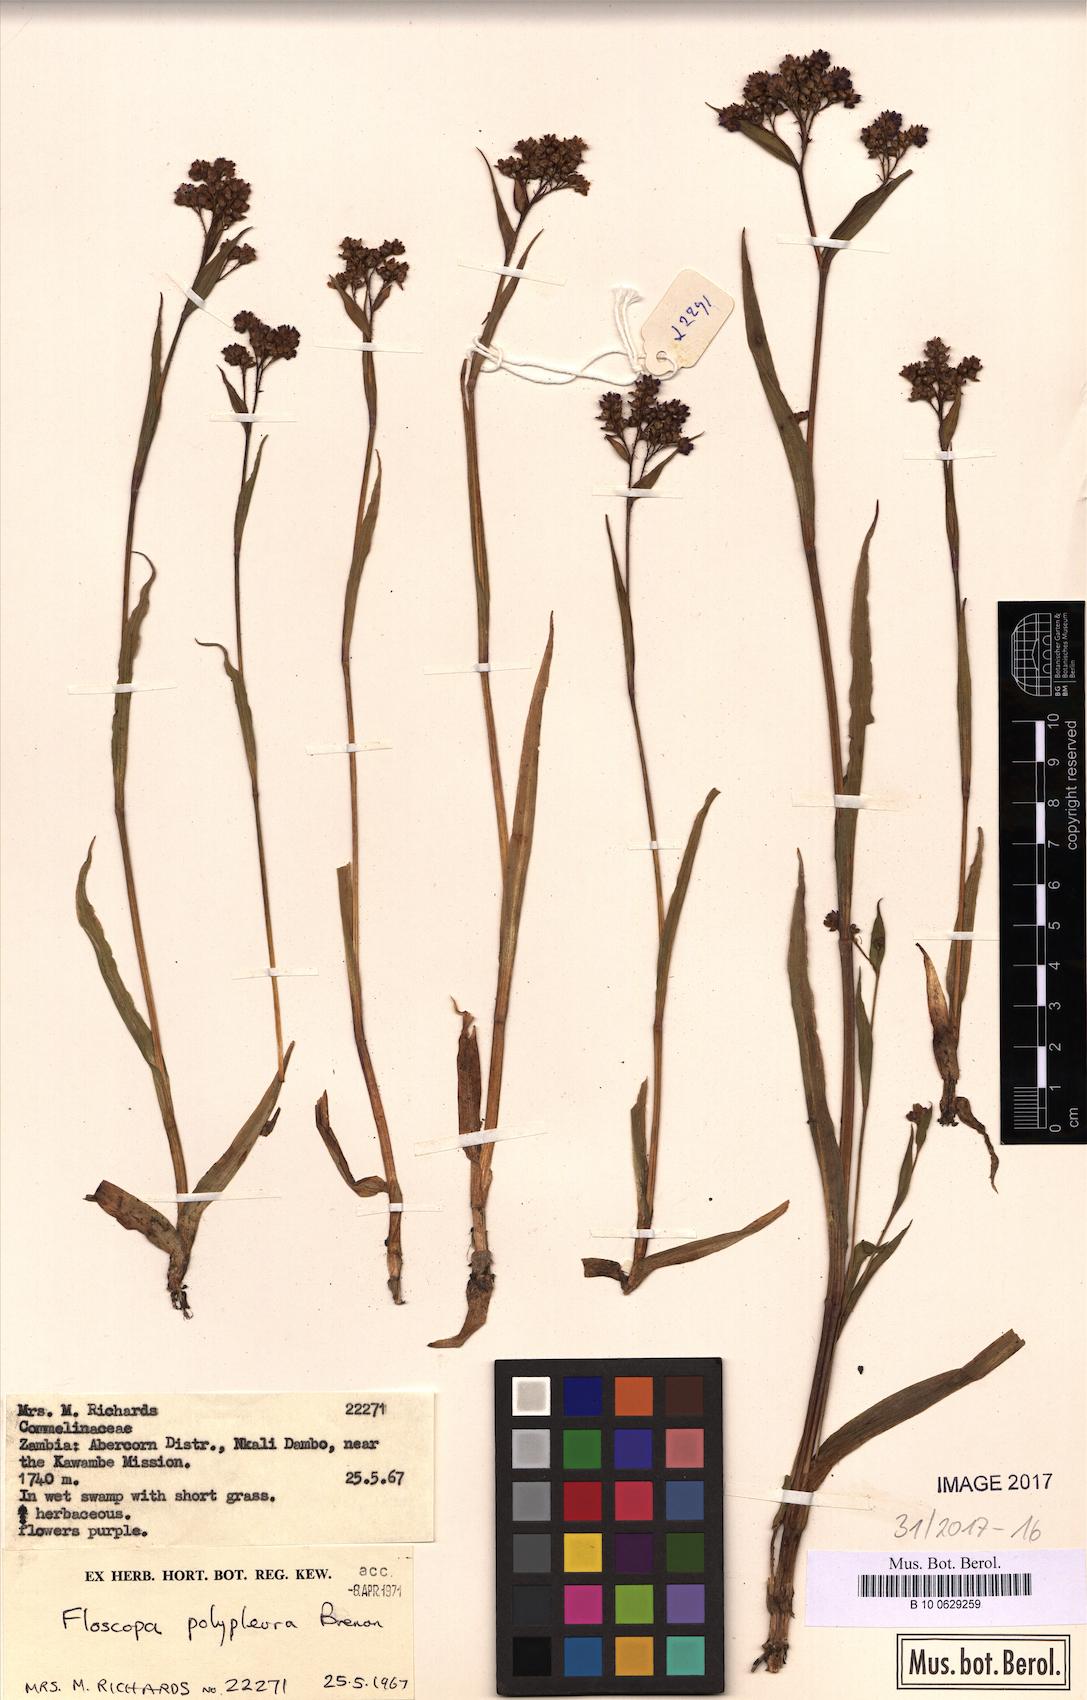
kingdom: Plantae
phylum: Tracheophyta
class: Liliopsida
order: Commelinales
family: Commelinaceae
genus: Floscopa
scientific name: Floscopa polypleura
